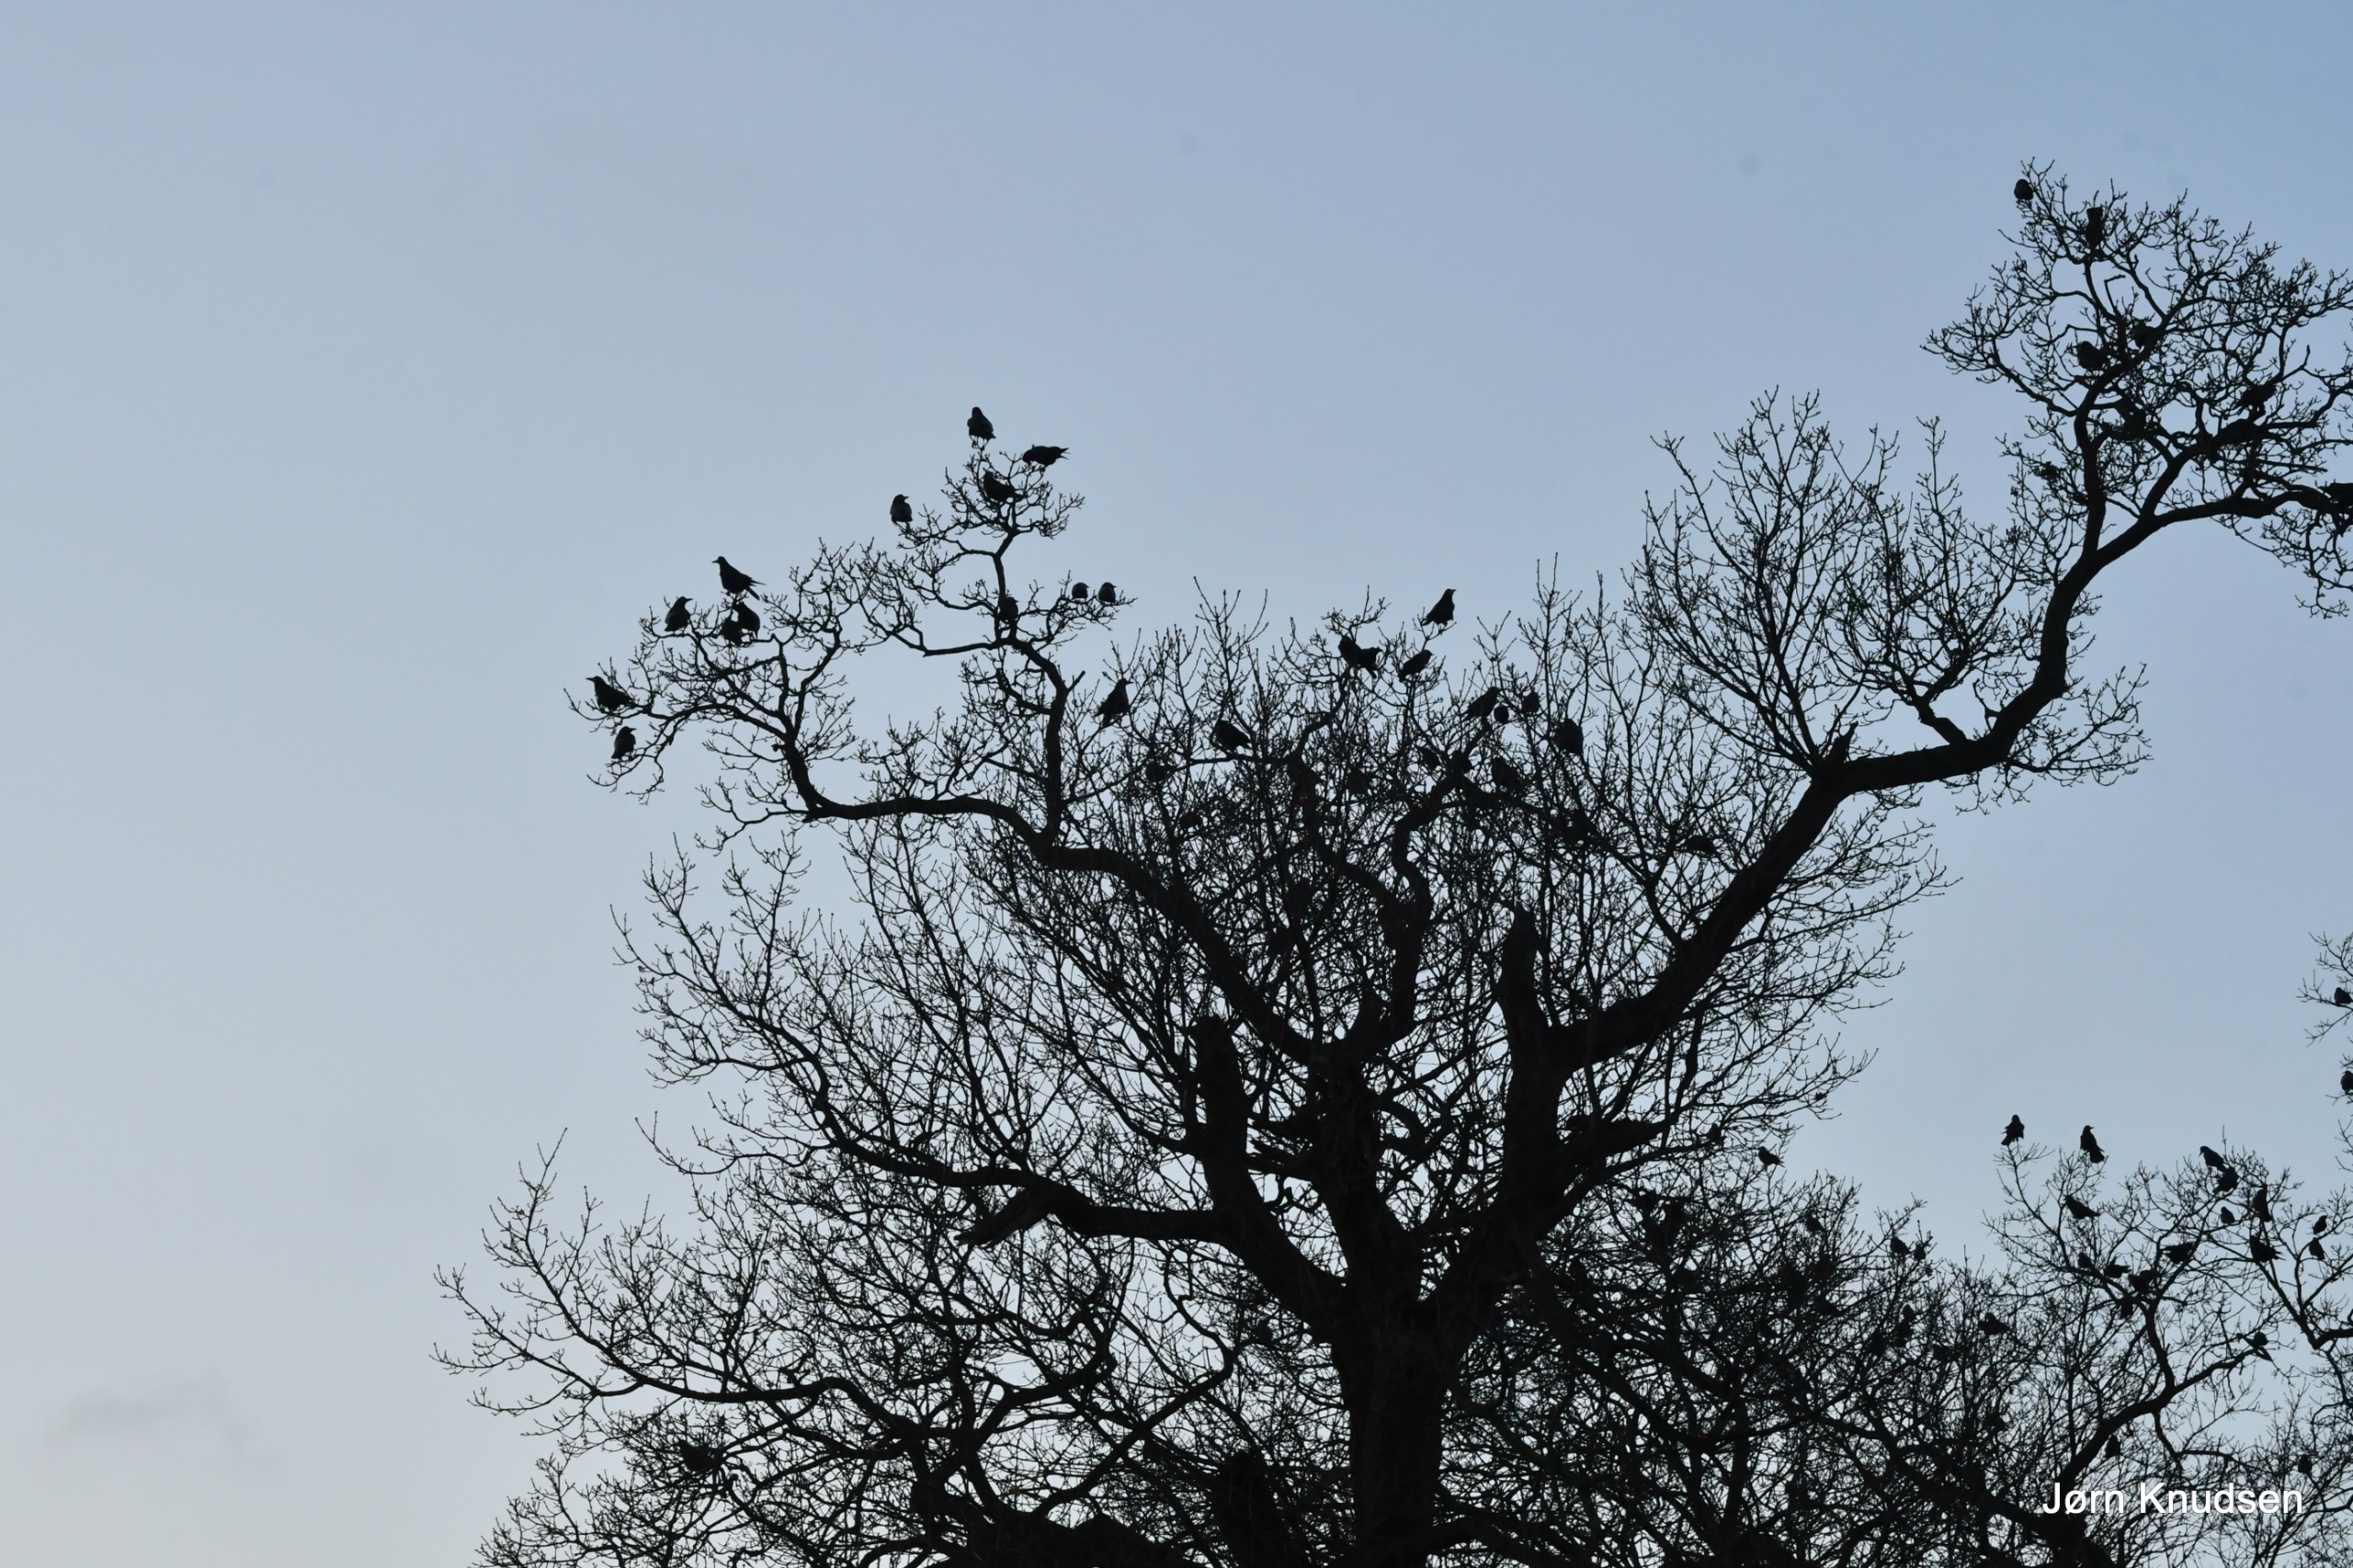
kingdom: Animalia
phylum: Chordata
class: Aves
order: Passeriformes
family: Corvidae
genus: Corvus
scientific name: Corvus frugilegus
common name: Råge
